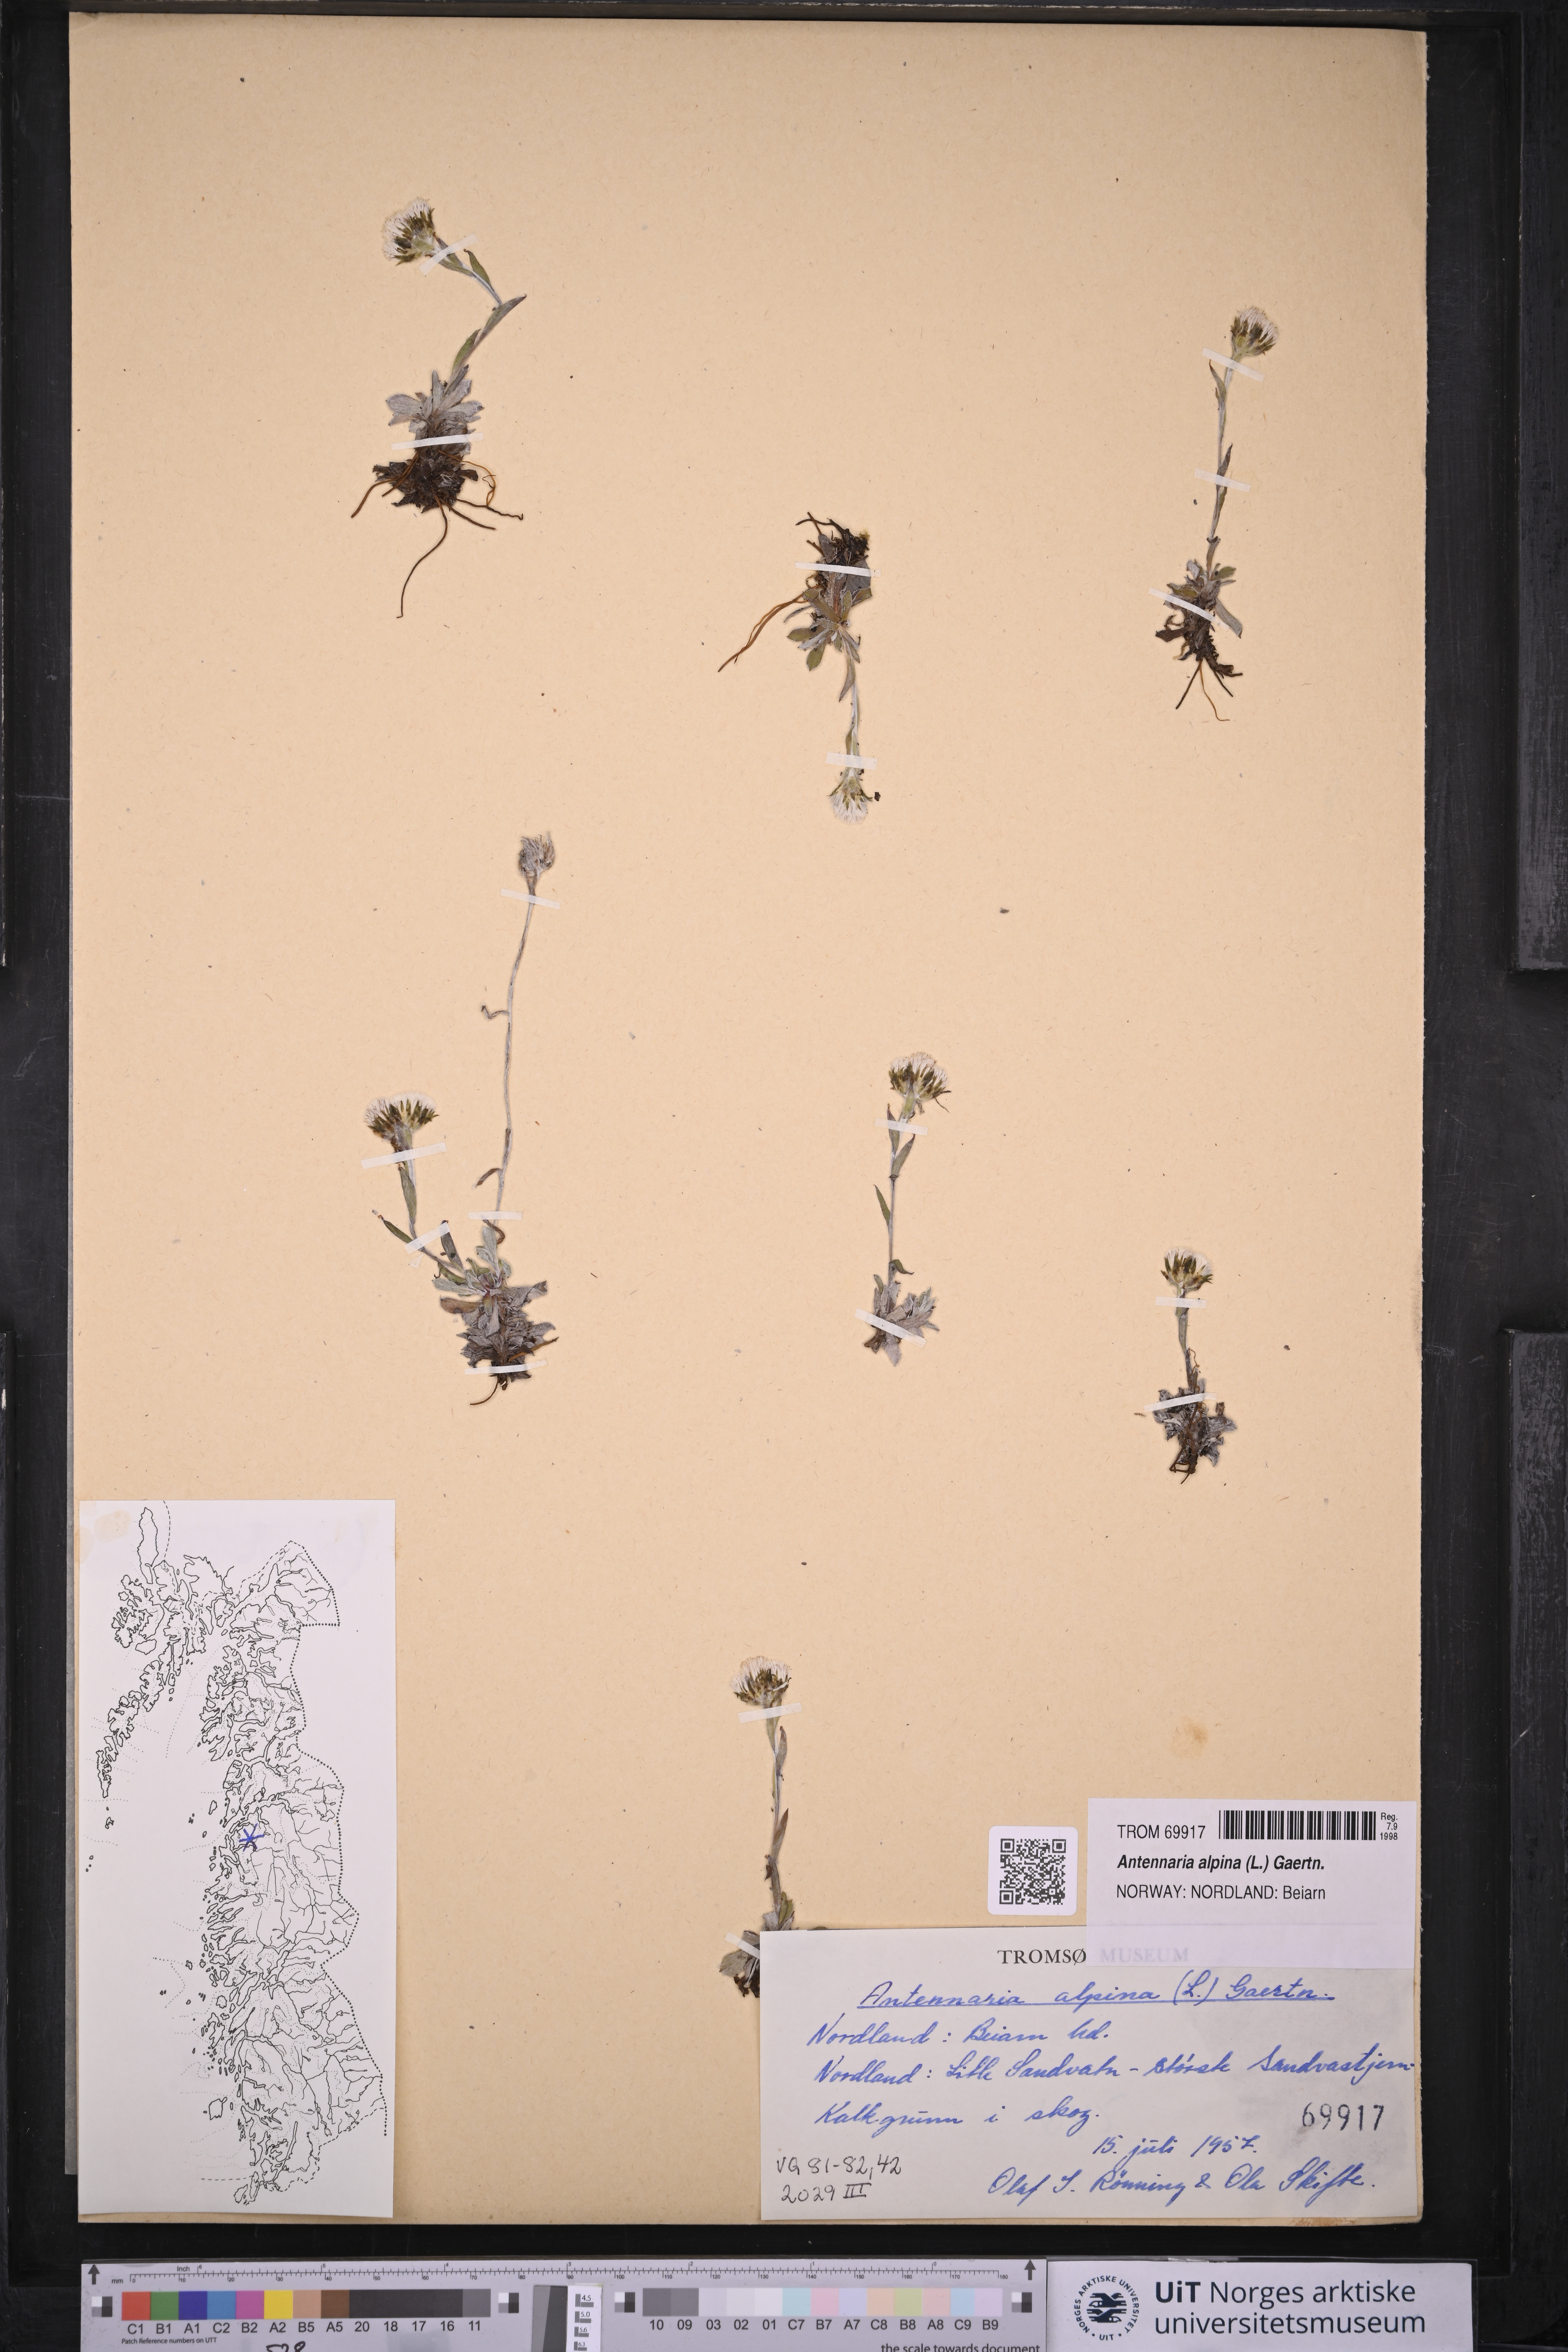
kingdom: Plantae
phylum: Tracheophyta
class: Magnoliopsida
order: Asterales
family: Asteraceae
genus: Antennaria
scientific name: Antennaria alpina
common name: Alpine pussytoes
